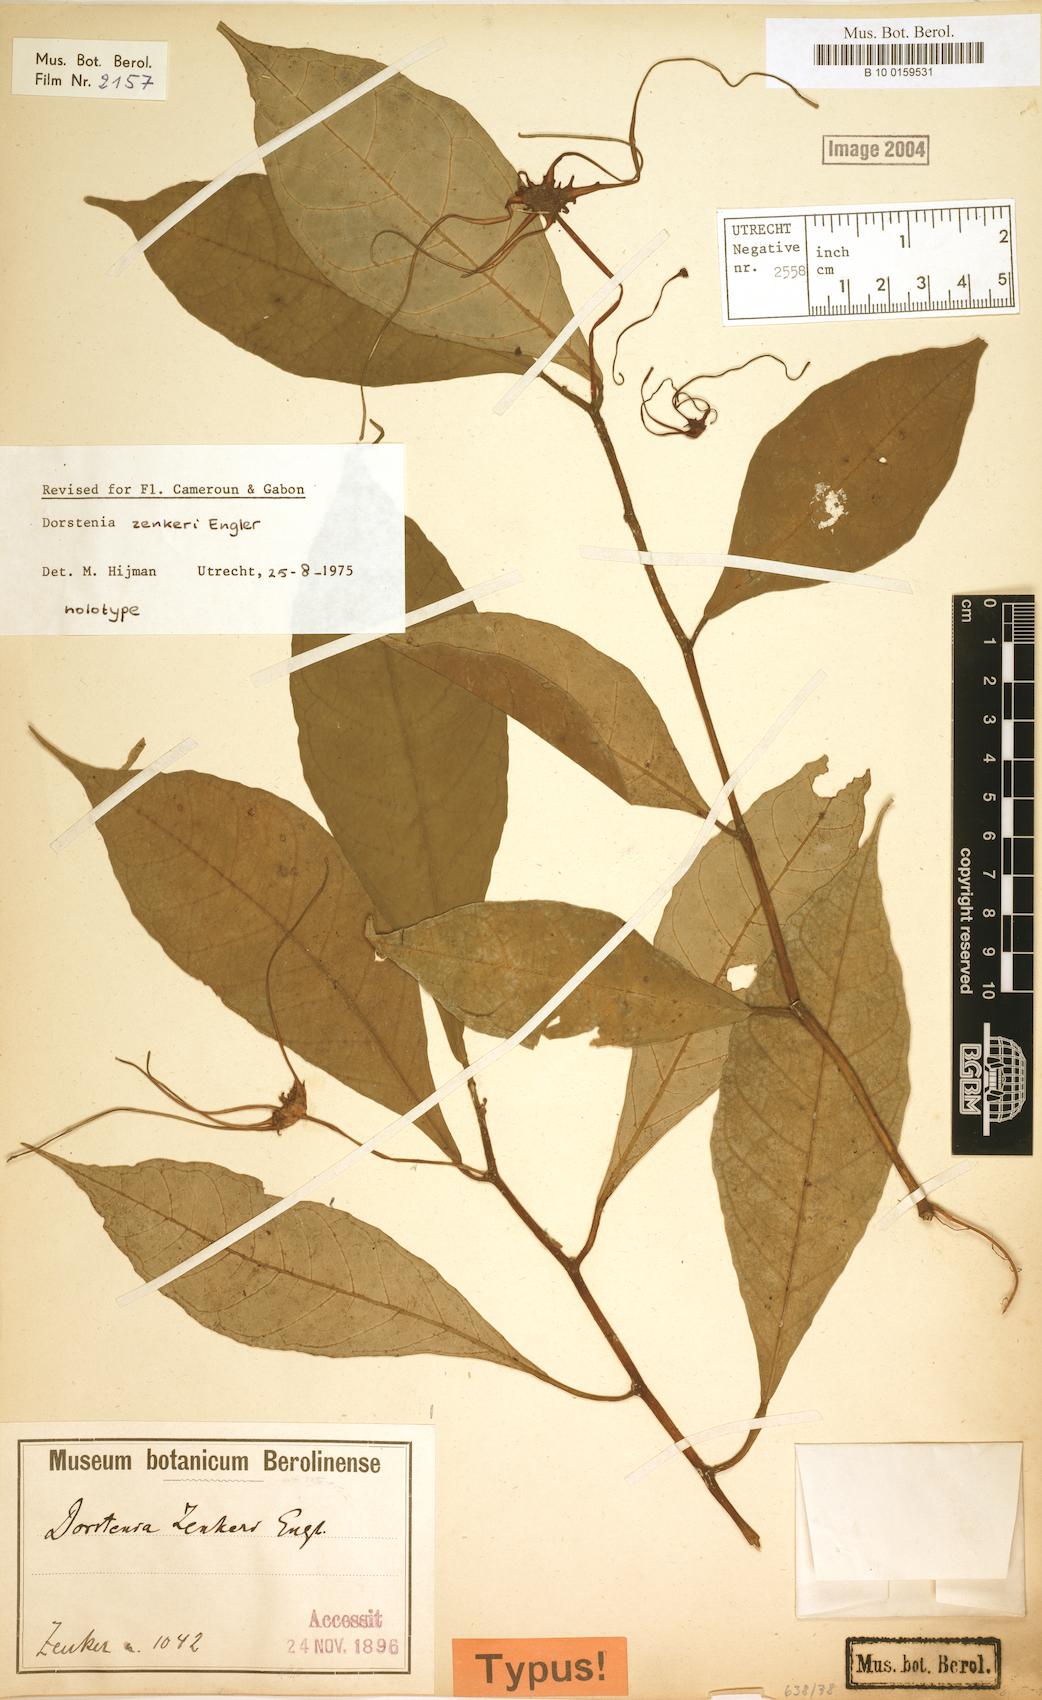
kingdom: Plantae
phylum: Tracheophyta
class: Magnoliopsida
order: Rosales
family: Moraceae
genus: Dorstenia
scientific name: Dorstenia zenkeri
